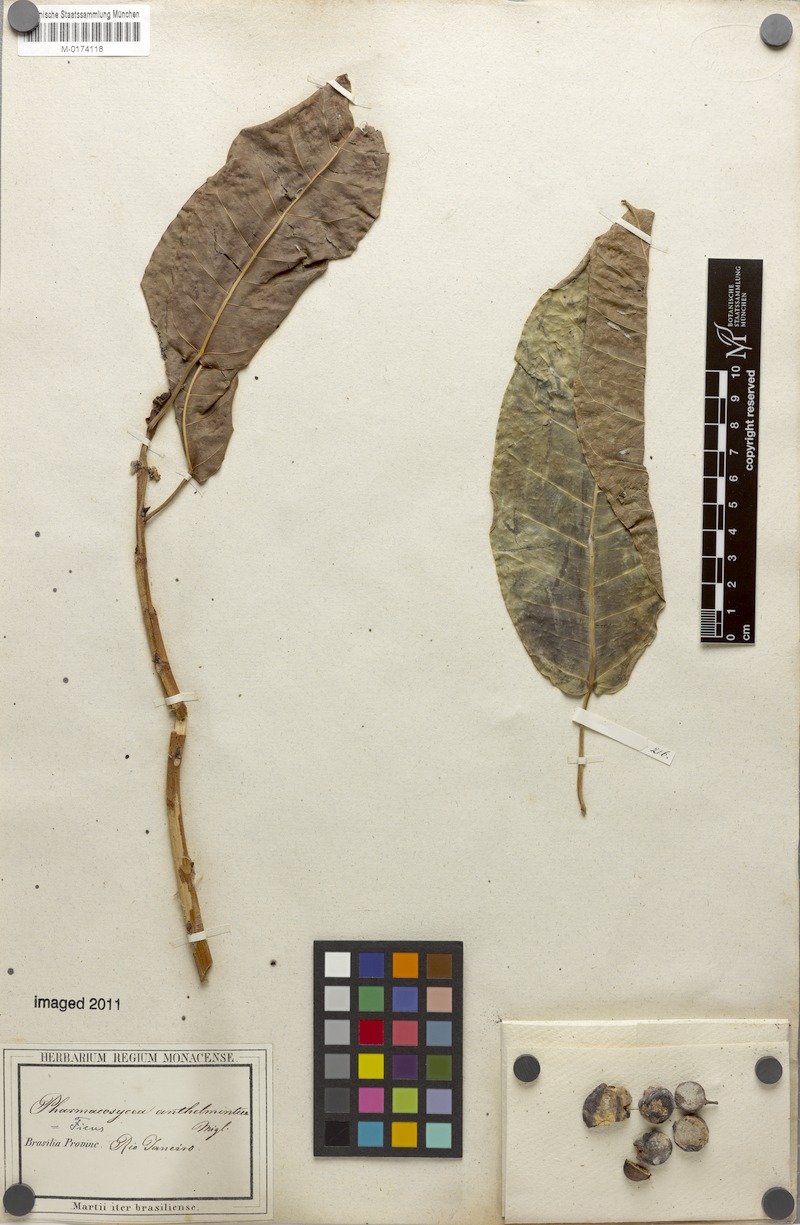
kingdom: Plantae
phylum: Tracheophyta
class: Magnoliopsida
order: Rosales
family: Moraceae
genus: Ficus
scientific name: Ficus adhatodifolia
